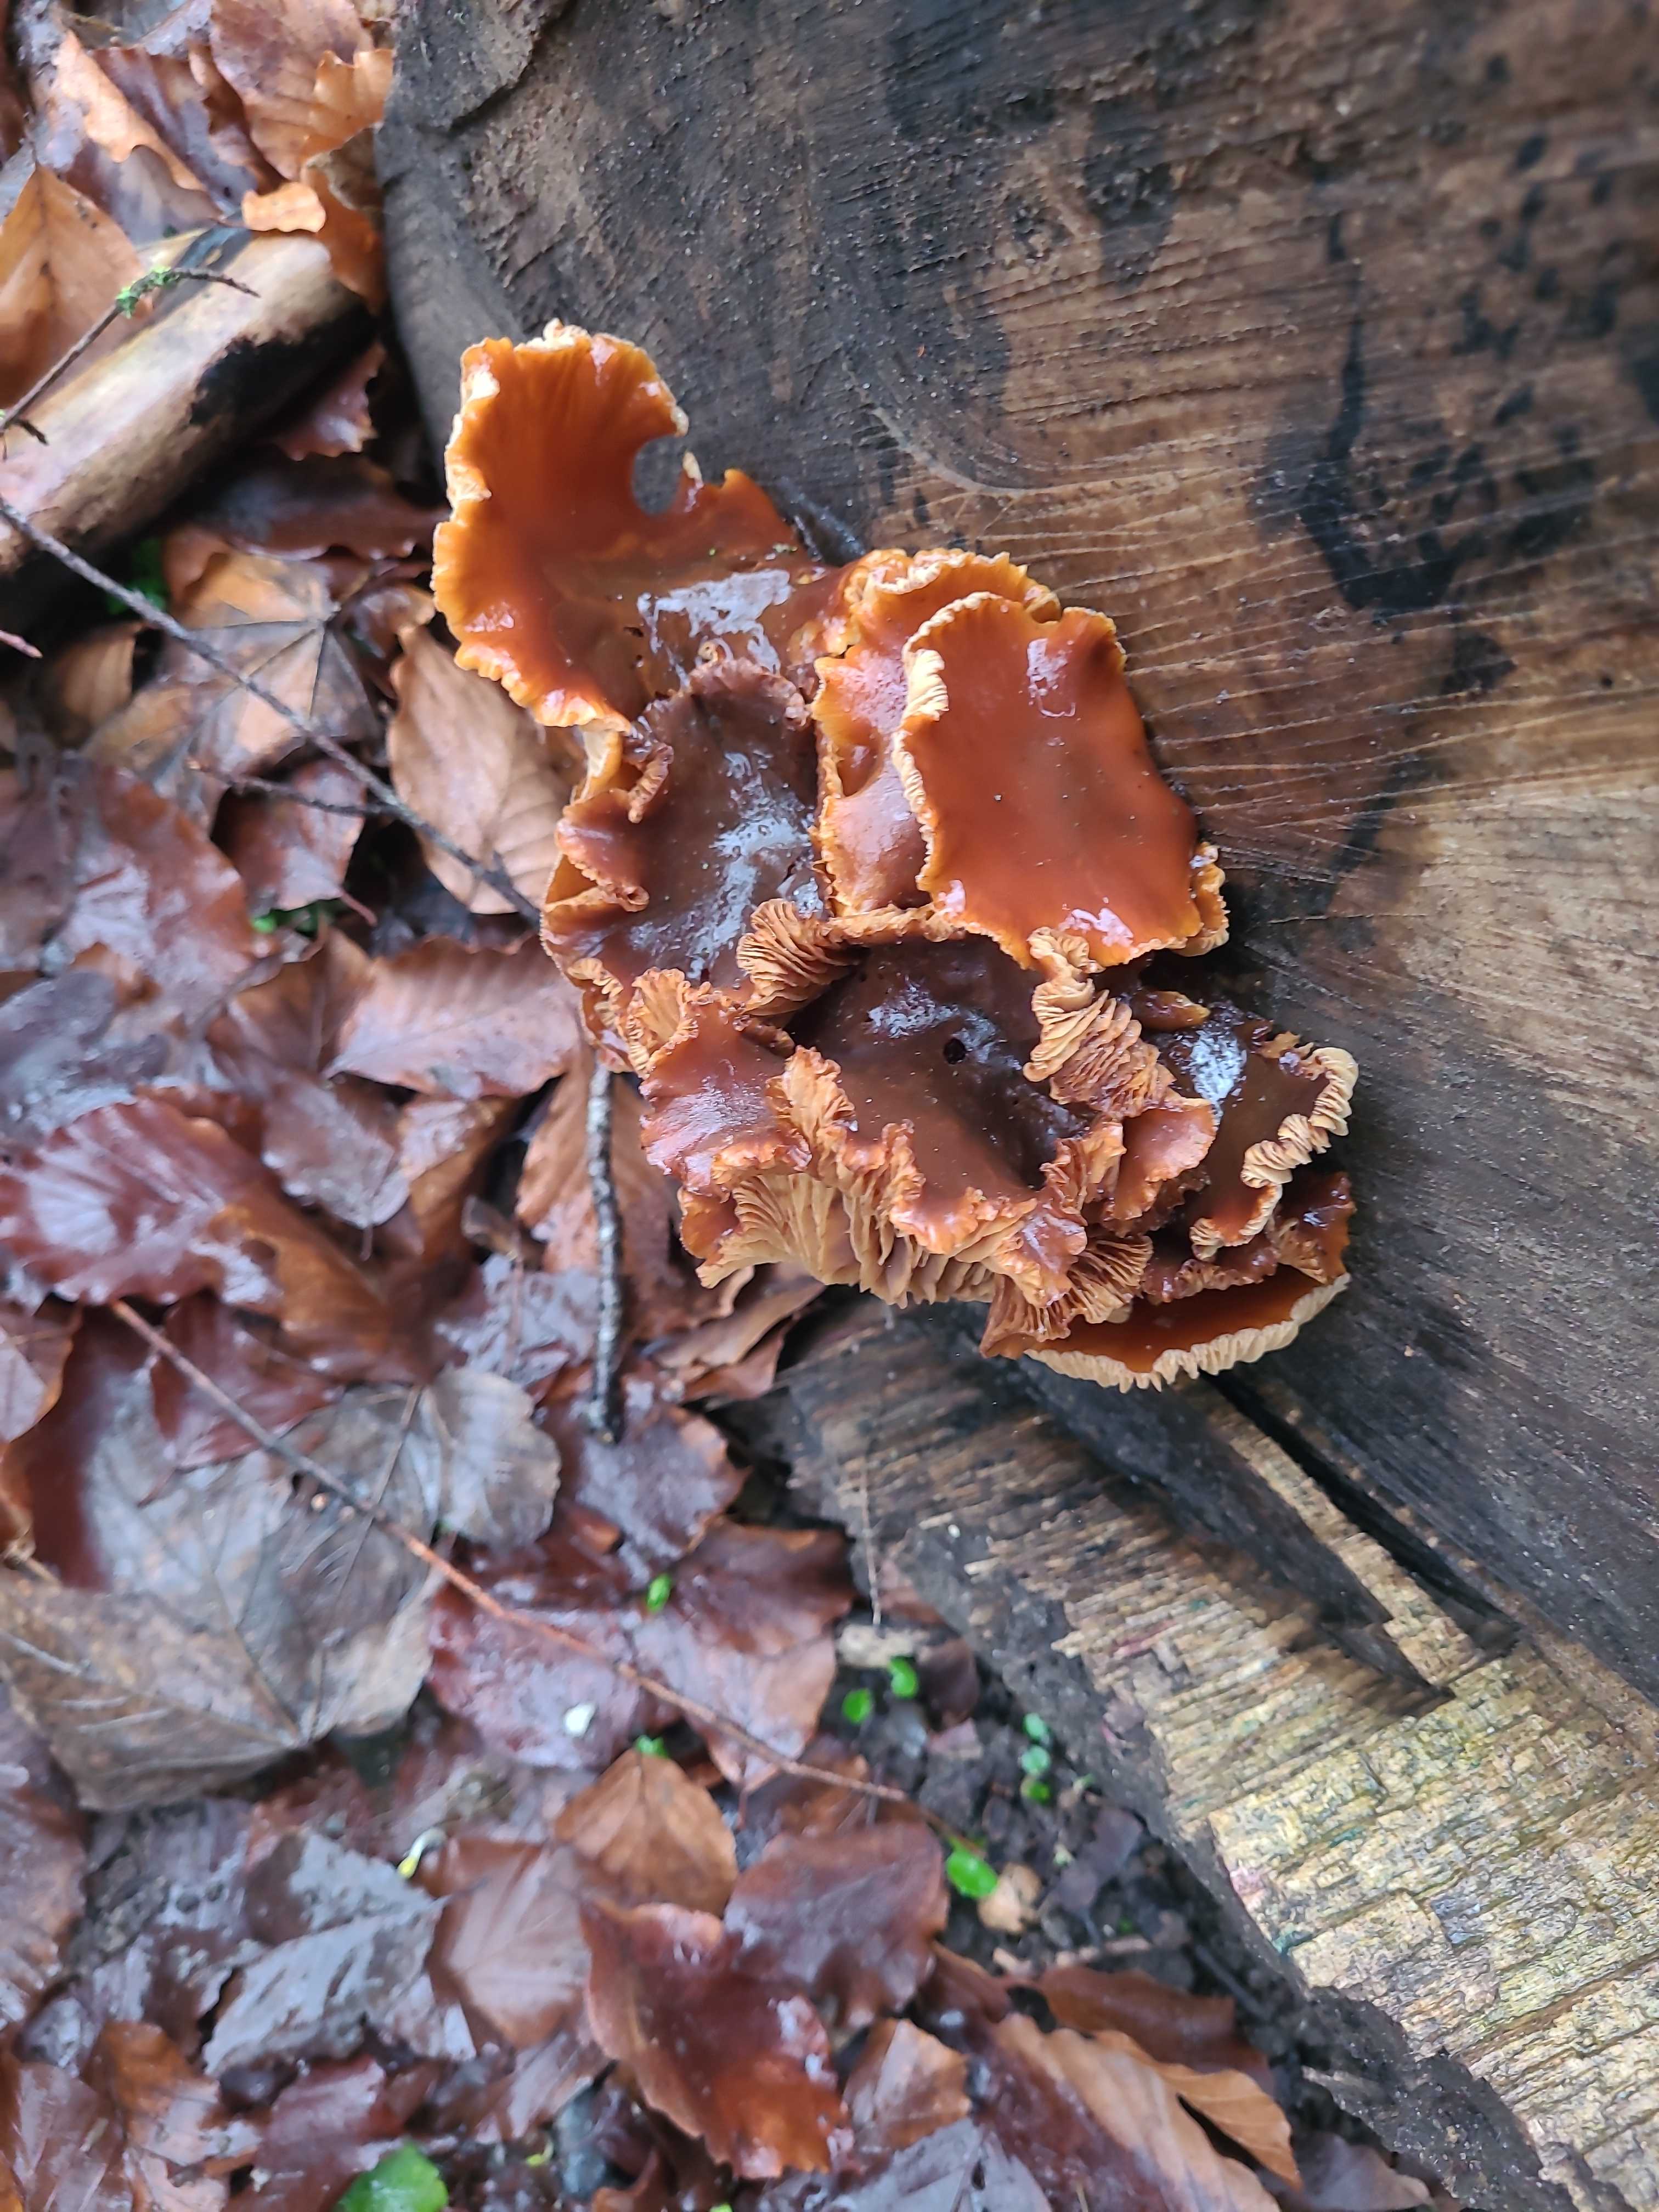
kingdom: Fungi
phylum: Basidiomycota
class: Agaricomycetes
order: Agaricales
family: Physalacriaceae
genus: Flammulina
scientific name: Flammulina velutipes
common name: gul fløjlsfod
